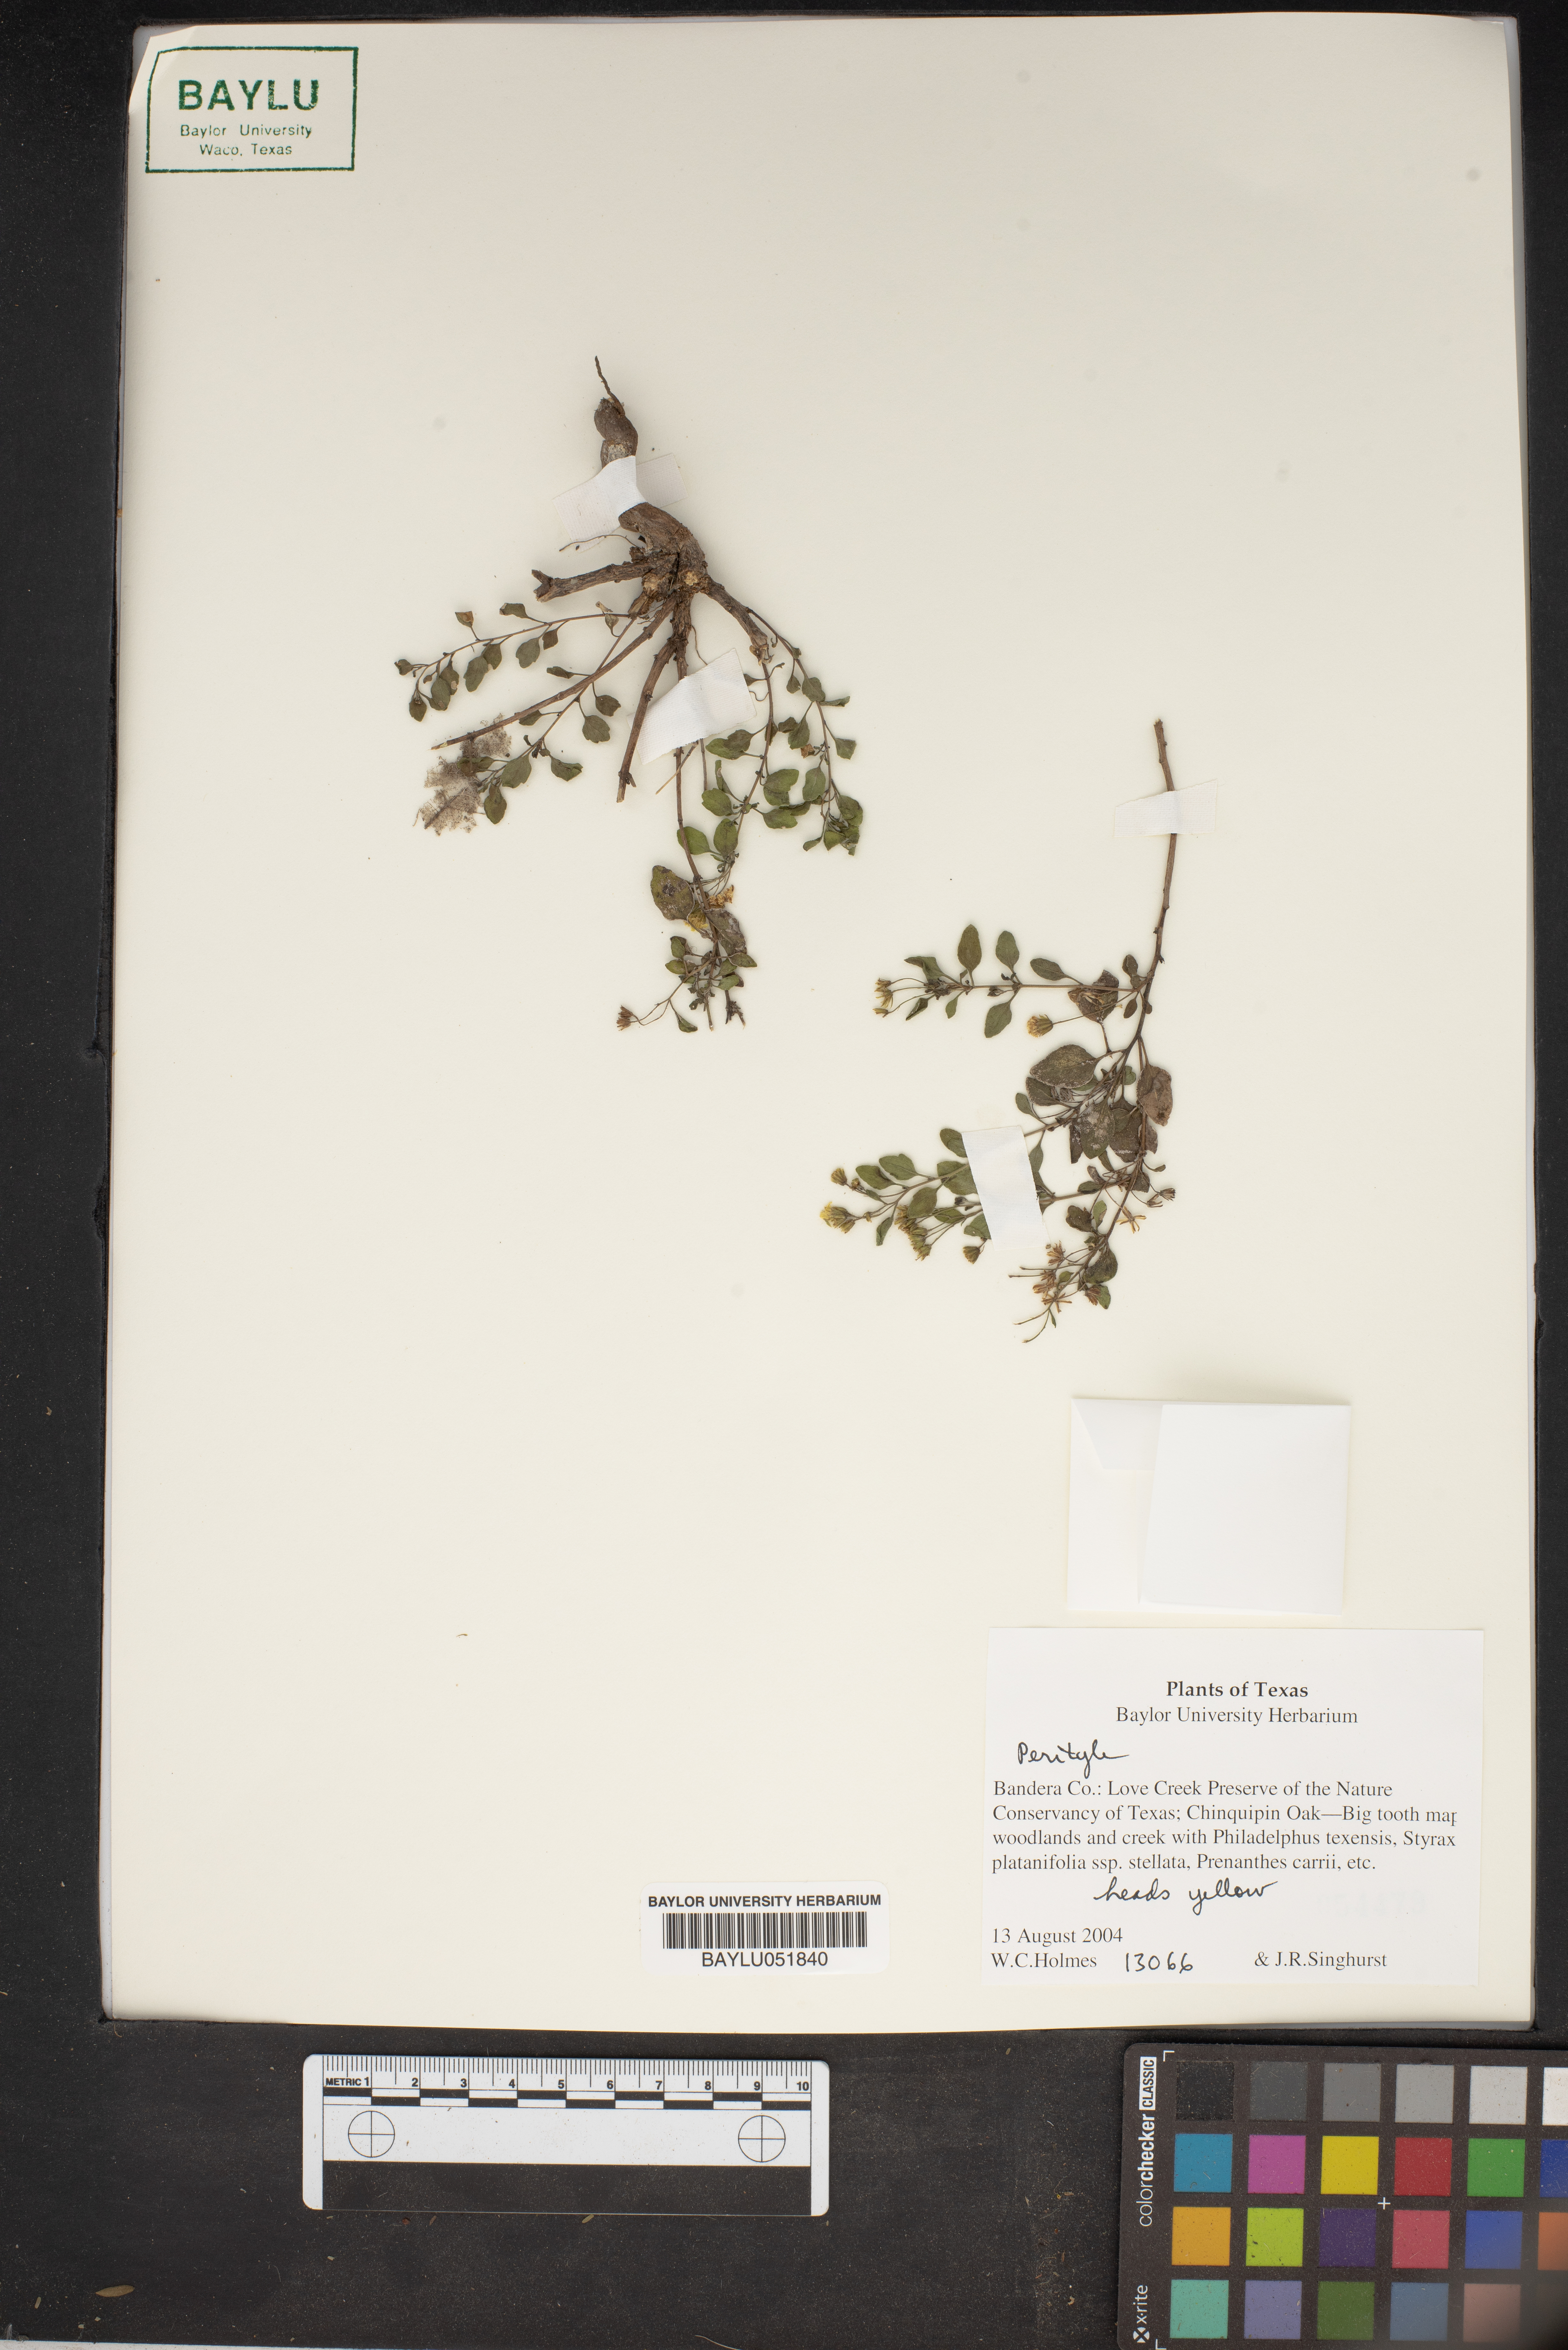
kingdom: Plantae
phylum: Tracheophyta
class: Magnoliopsida
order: Asterales
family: Asteraceae
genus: Perityle
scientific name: Perityle
